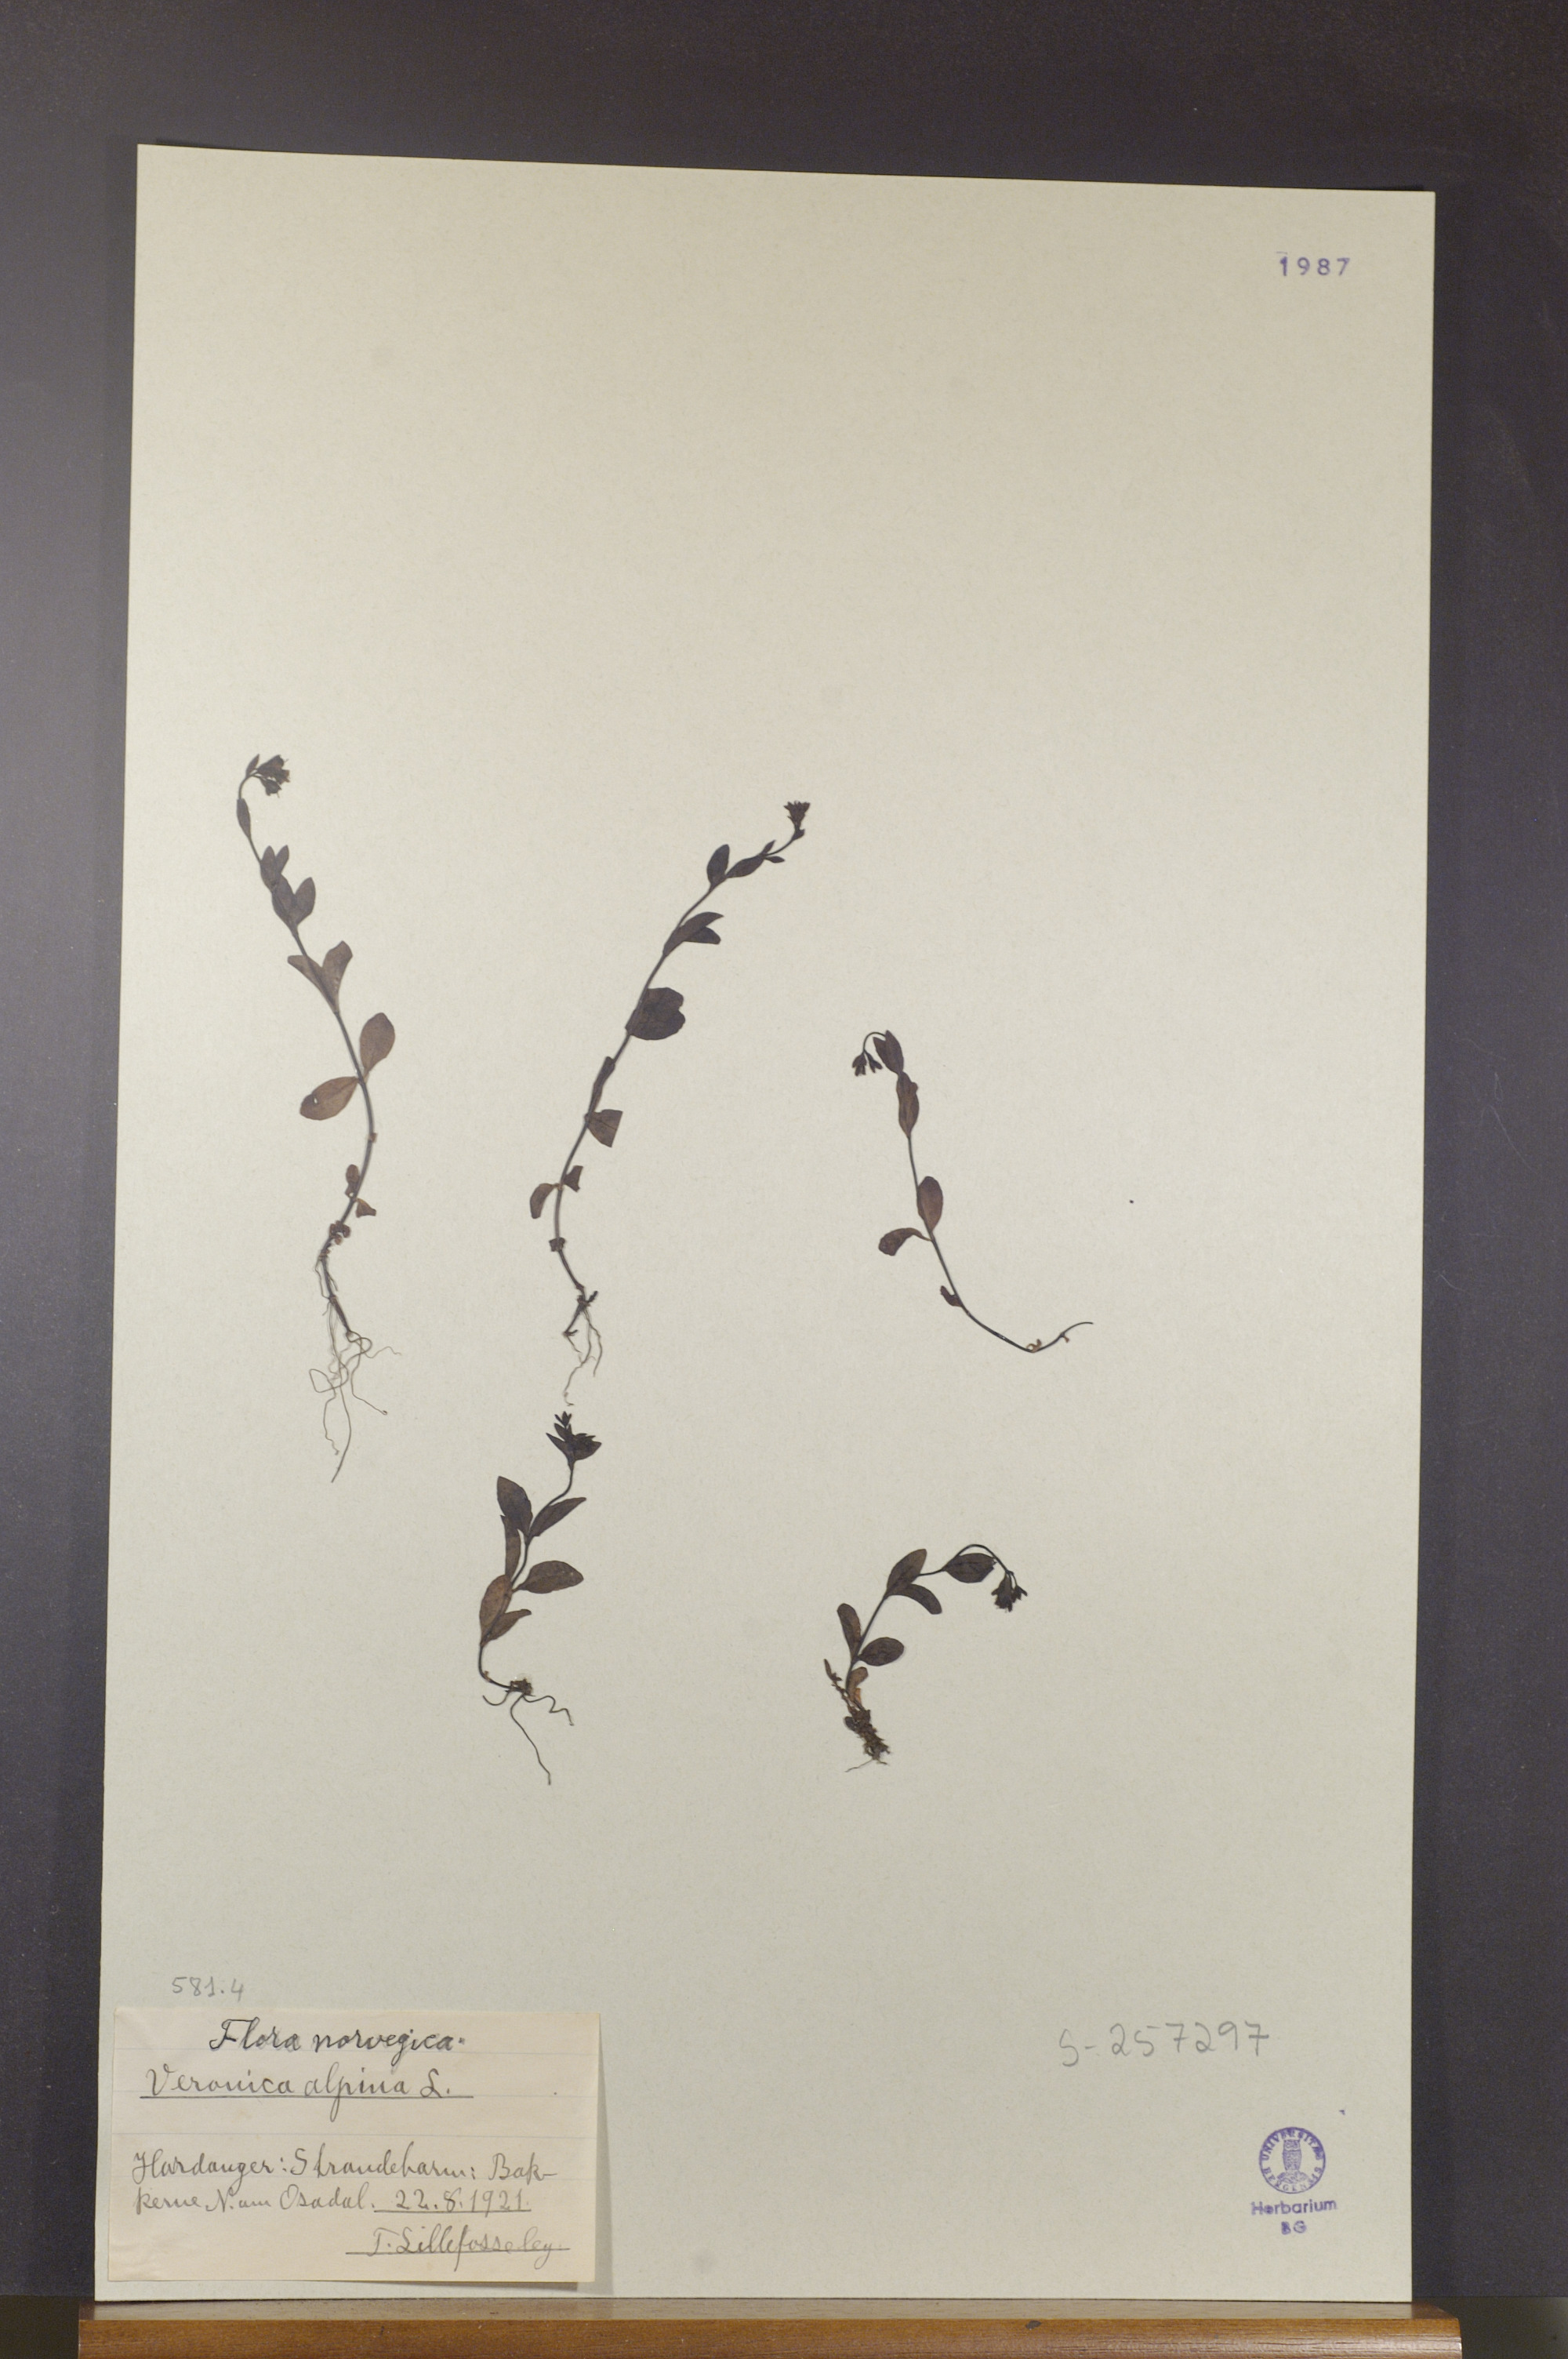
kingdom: Plantae
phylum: Tracheophyta
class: Magnoliopsida
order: Lamiales
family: Plantaginaceae
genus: Veronica
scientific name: Veronica alpina
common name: Alpine speedwell
